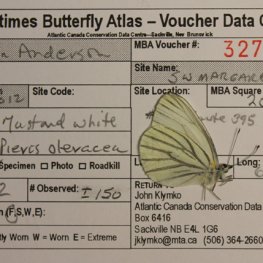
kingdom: Animalia
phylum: Arthropoda
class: Insecta
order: Lepidoptera
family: Pieridae
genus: Pieris
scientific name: Pieris oleracea
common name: Mustard White
